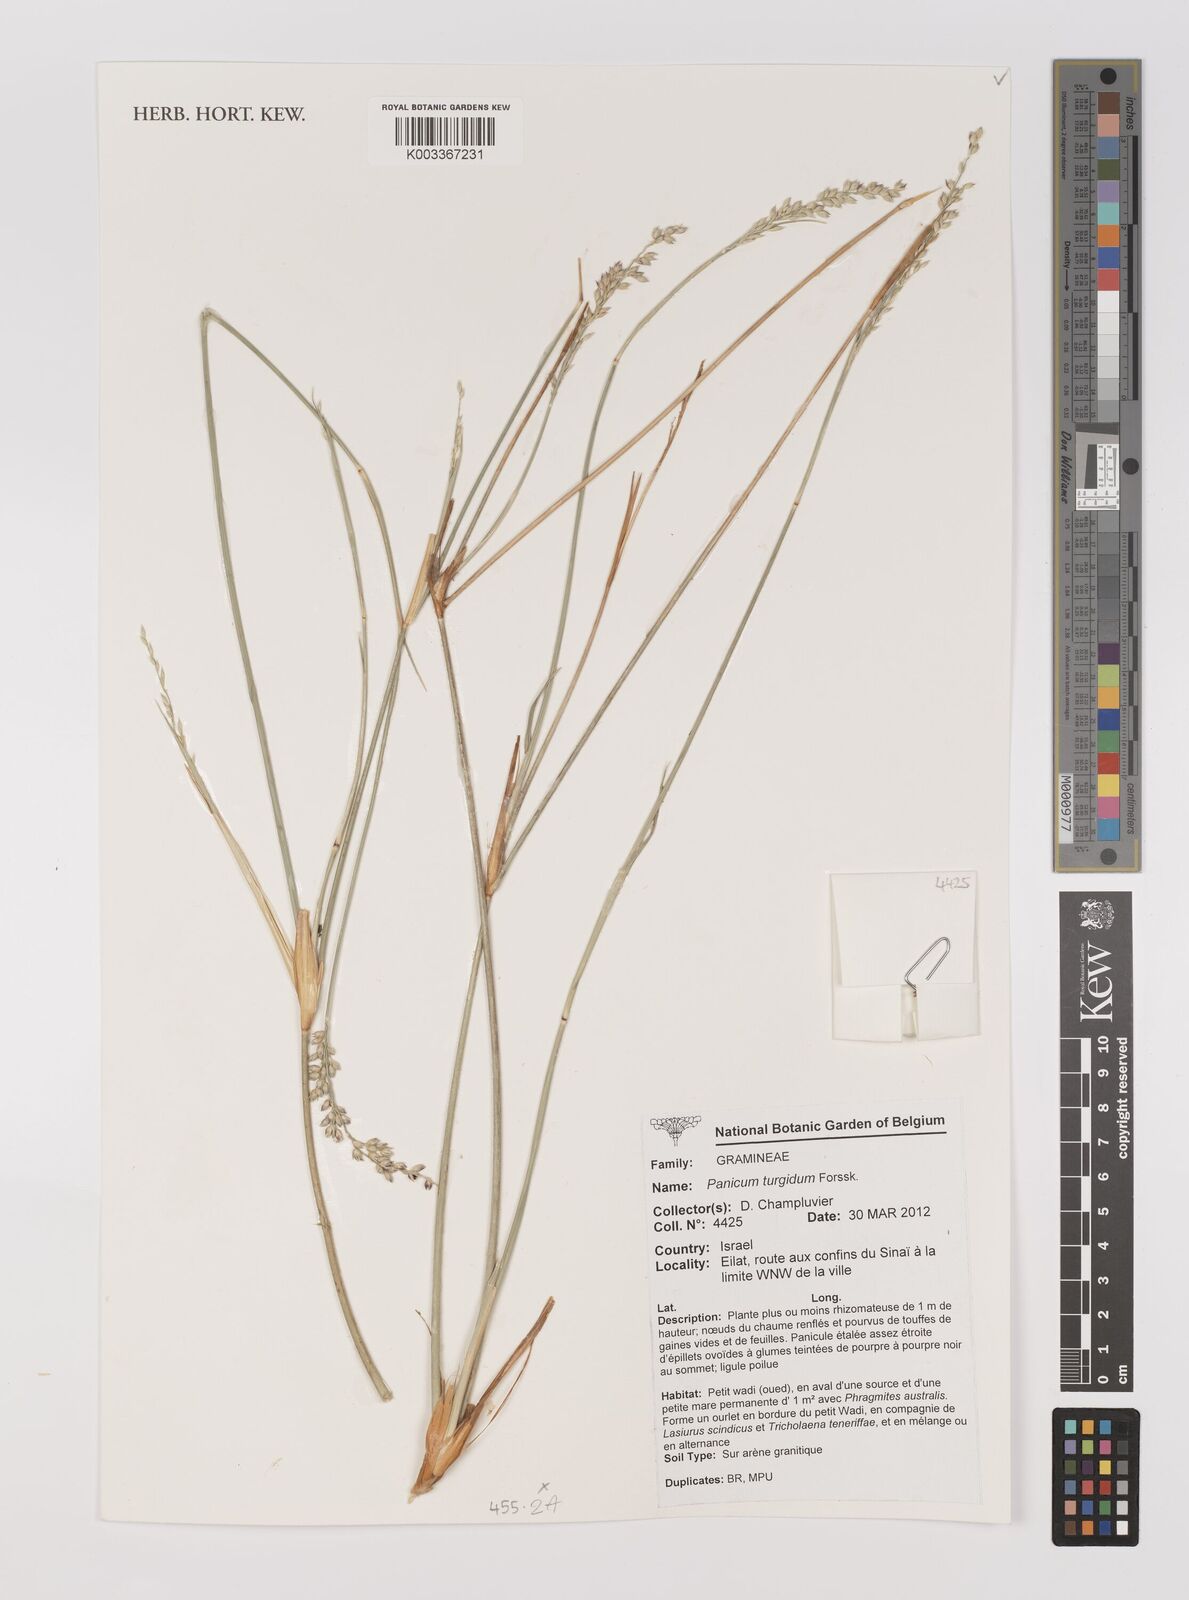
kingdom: Plantae
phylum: Tracheophyta
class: Liliopsida
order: Poales
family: Poaceae
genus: Panicum
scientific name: Panicum turgidum
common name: Desert grass
